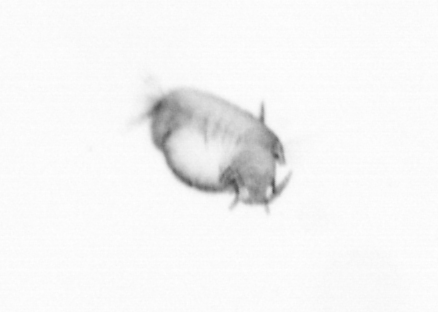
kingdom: Animalia
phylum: Annelida
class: Polychaeta
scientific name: Polychaeta
